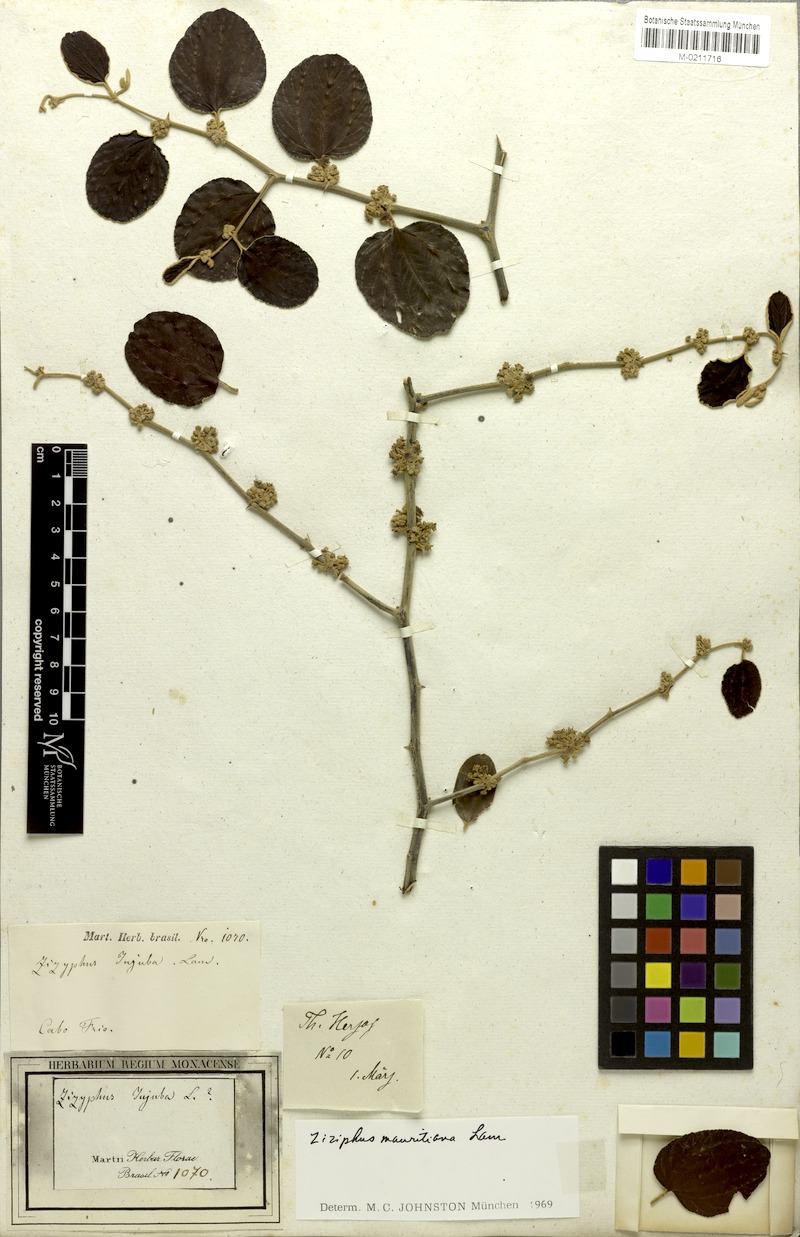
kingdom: Plantae
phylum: Tracheophyta
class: Magnoliopsida
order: Rosales
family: Rhamnaceae
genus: Ziziphus
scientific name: Ziziphus mauritiana
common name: Indian jujube
